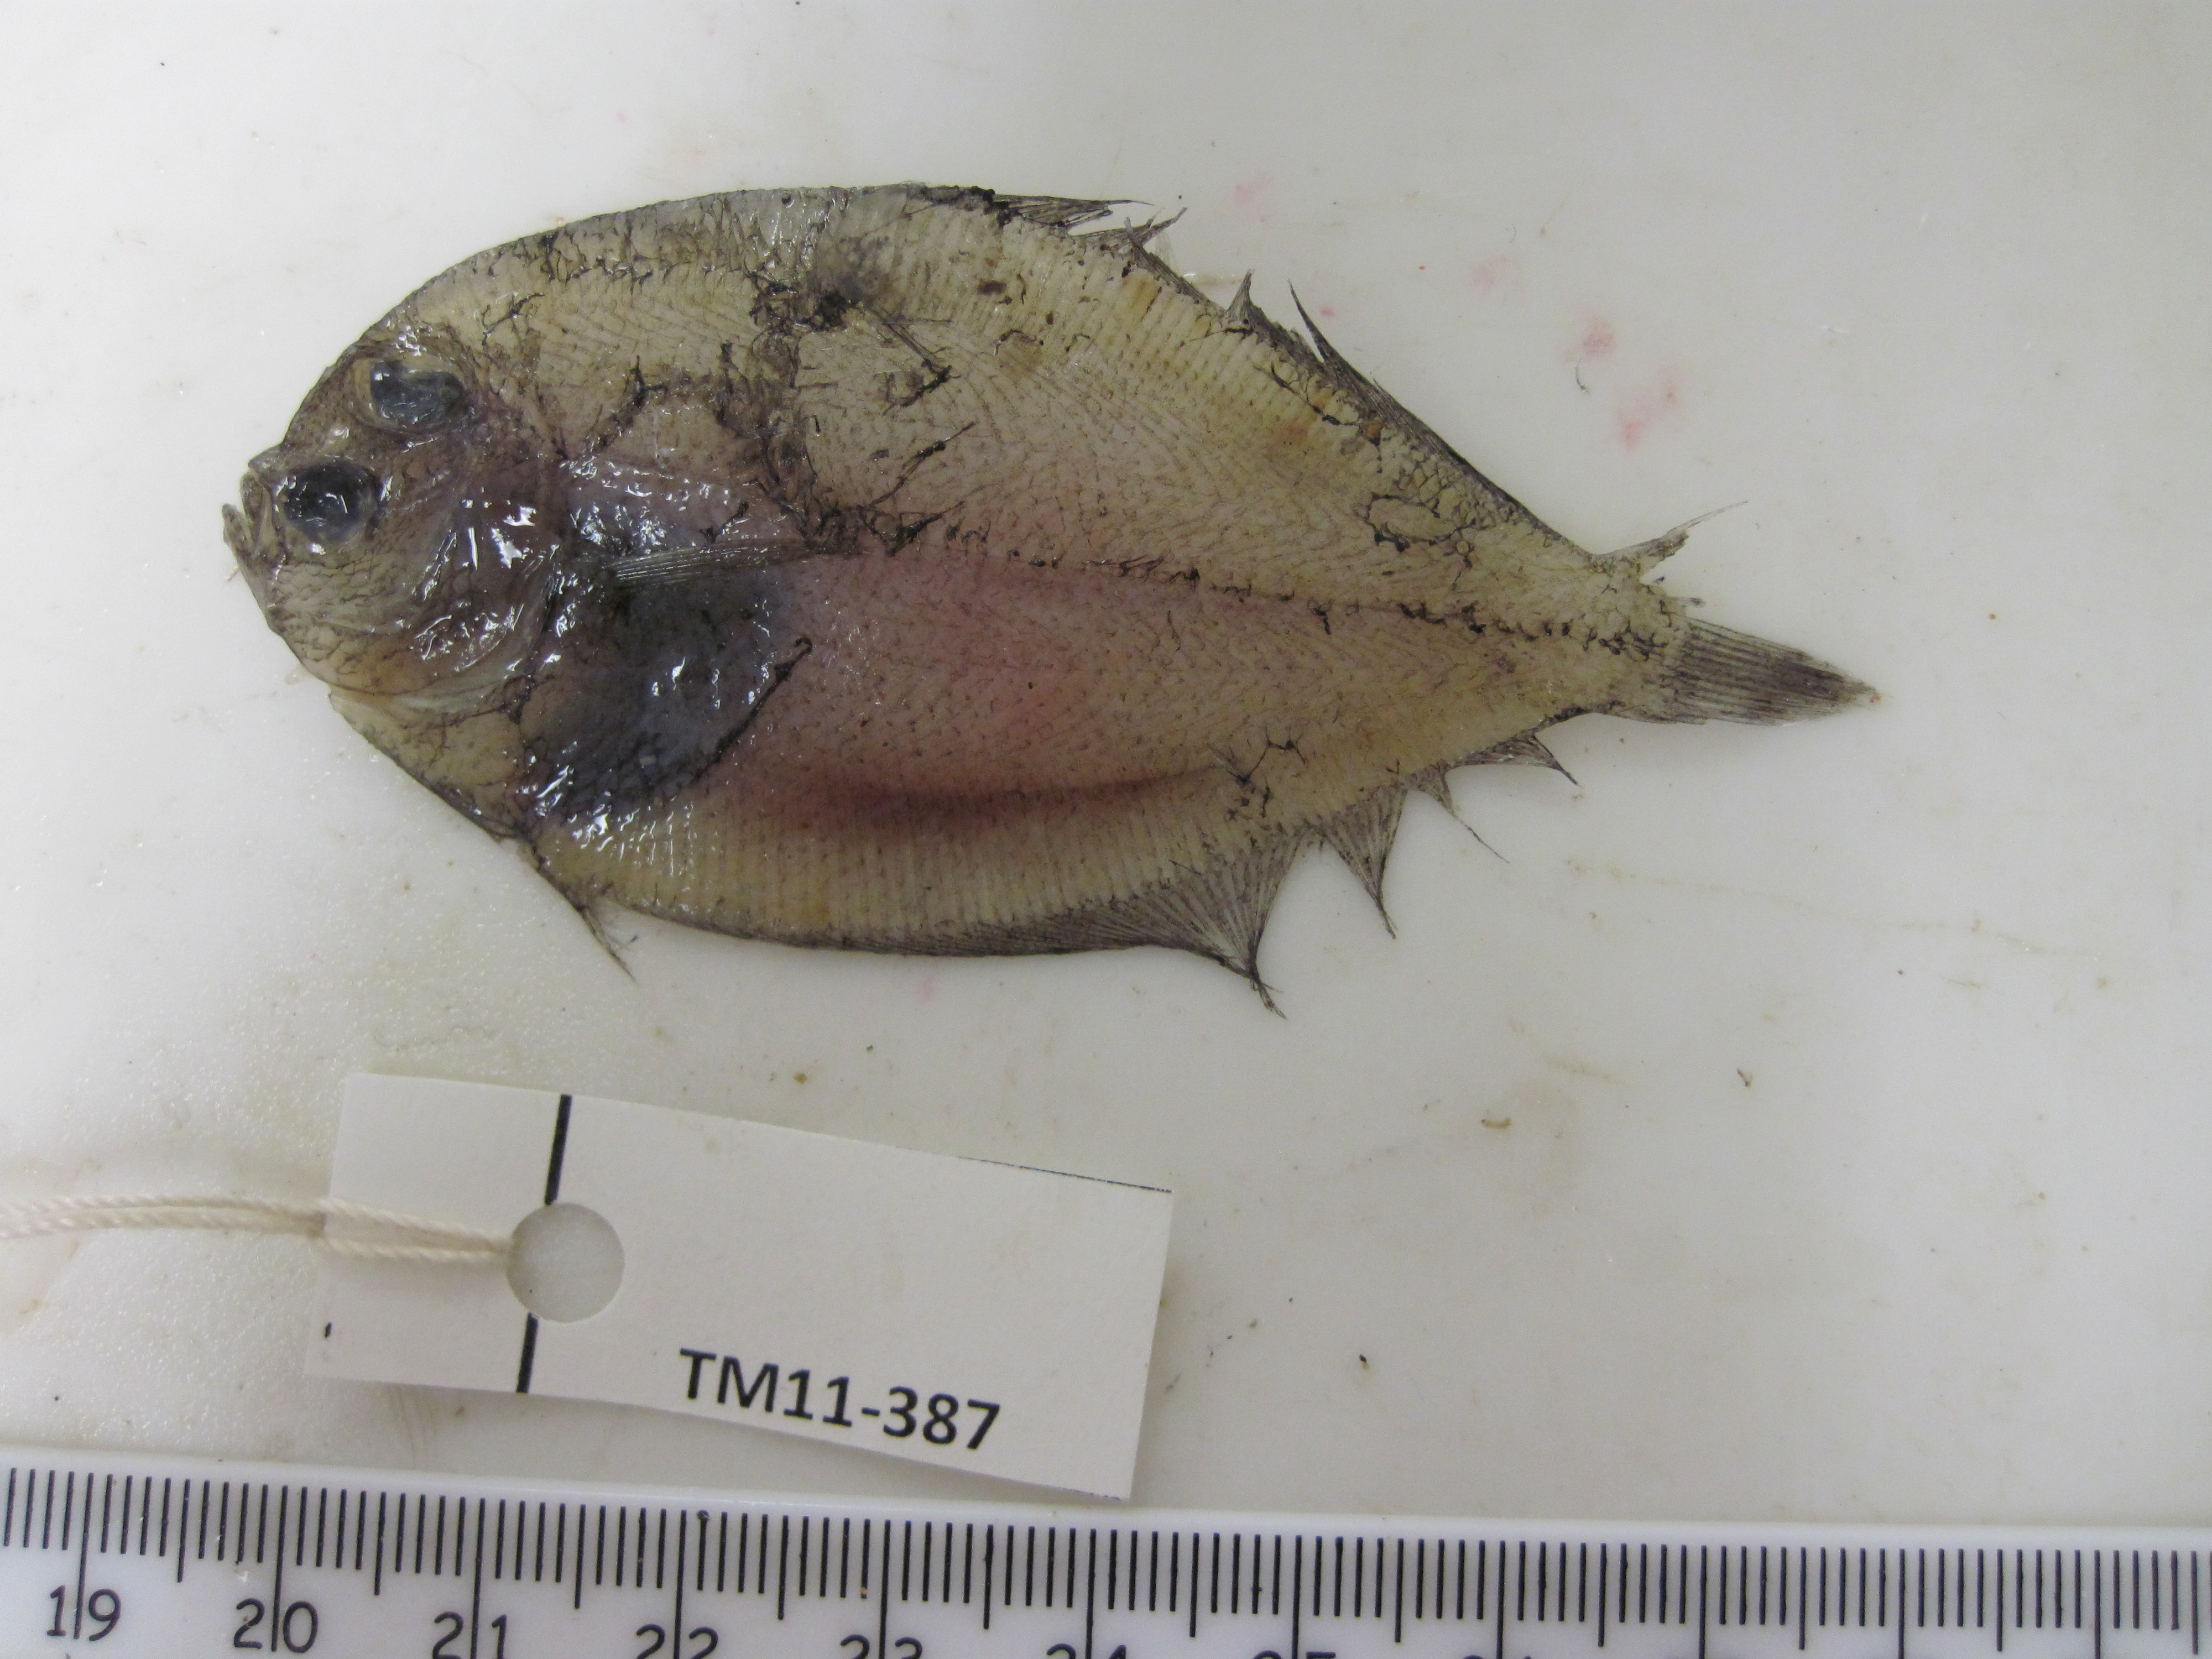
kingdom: Animalia
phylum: Chordata
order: Pleuronectiformes
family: Bothidae
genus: Crossorhombus
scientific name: Crossorhombus valderostratus
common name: Broadbrow flounder
